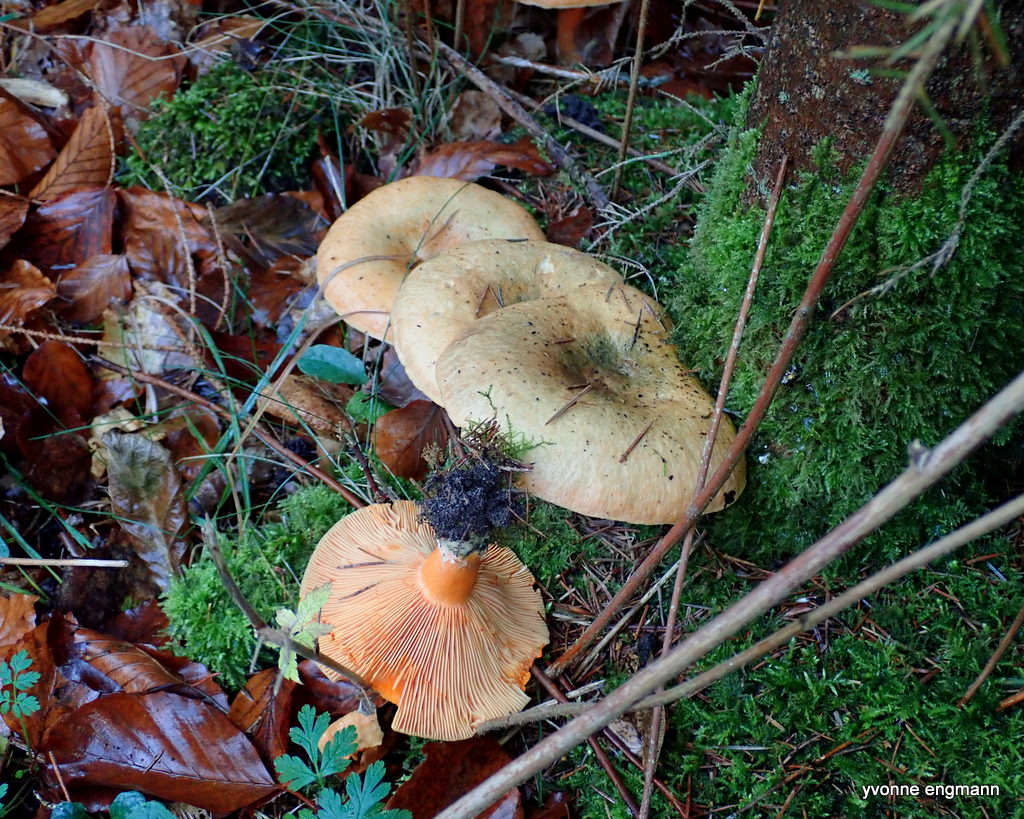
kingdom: Fungi
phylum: Basidiomycota
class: Agaricomycetes
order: Russulales
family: Russulaceae
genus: Lactarius
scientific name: Lactarius deterrimus
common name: gran-mælkehat
